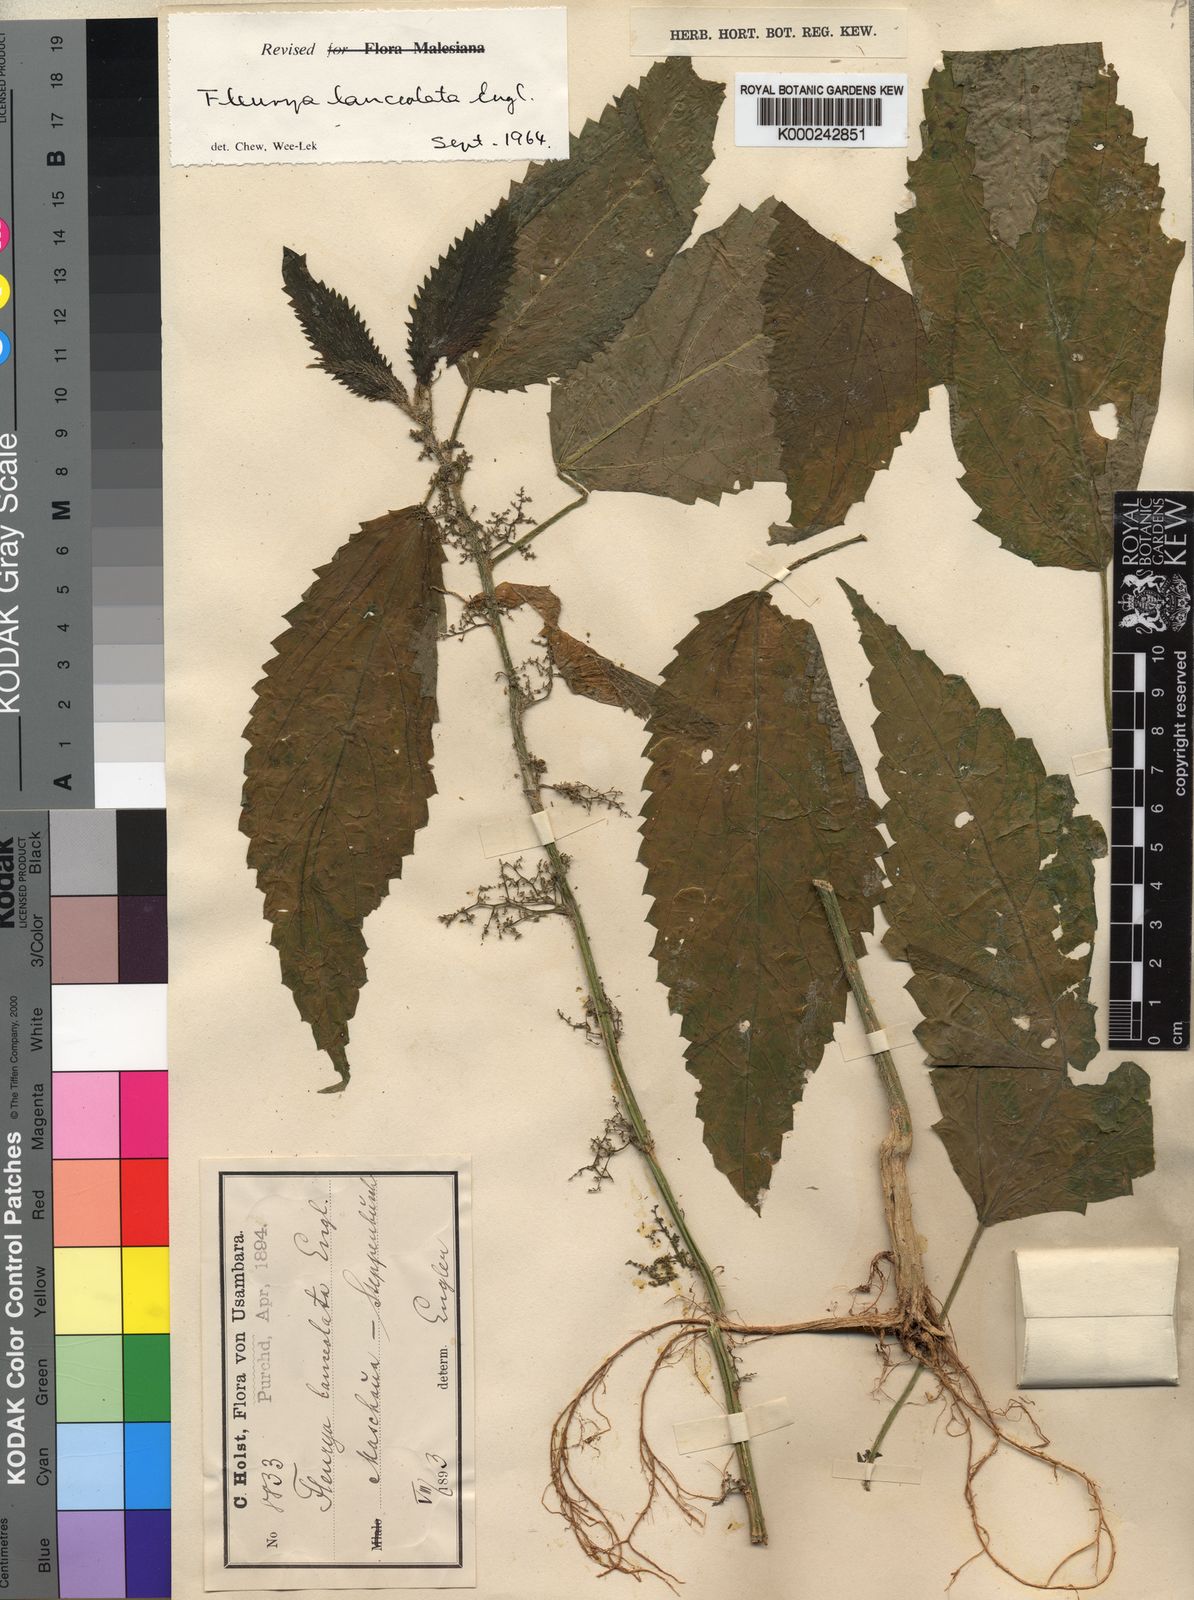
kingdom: Plantae
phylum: Tracheophyta
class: Magnoliopsida
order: Rosales
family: Urticaceae
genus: Laportea
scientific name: Laportea lanceolata
